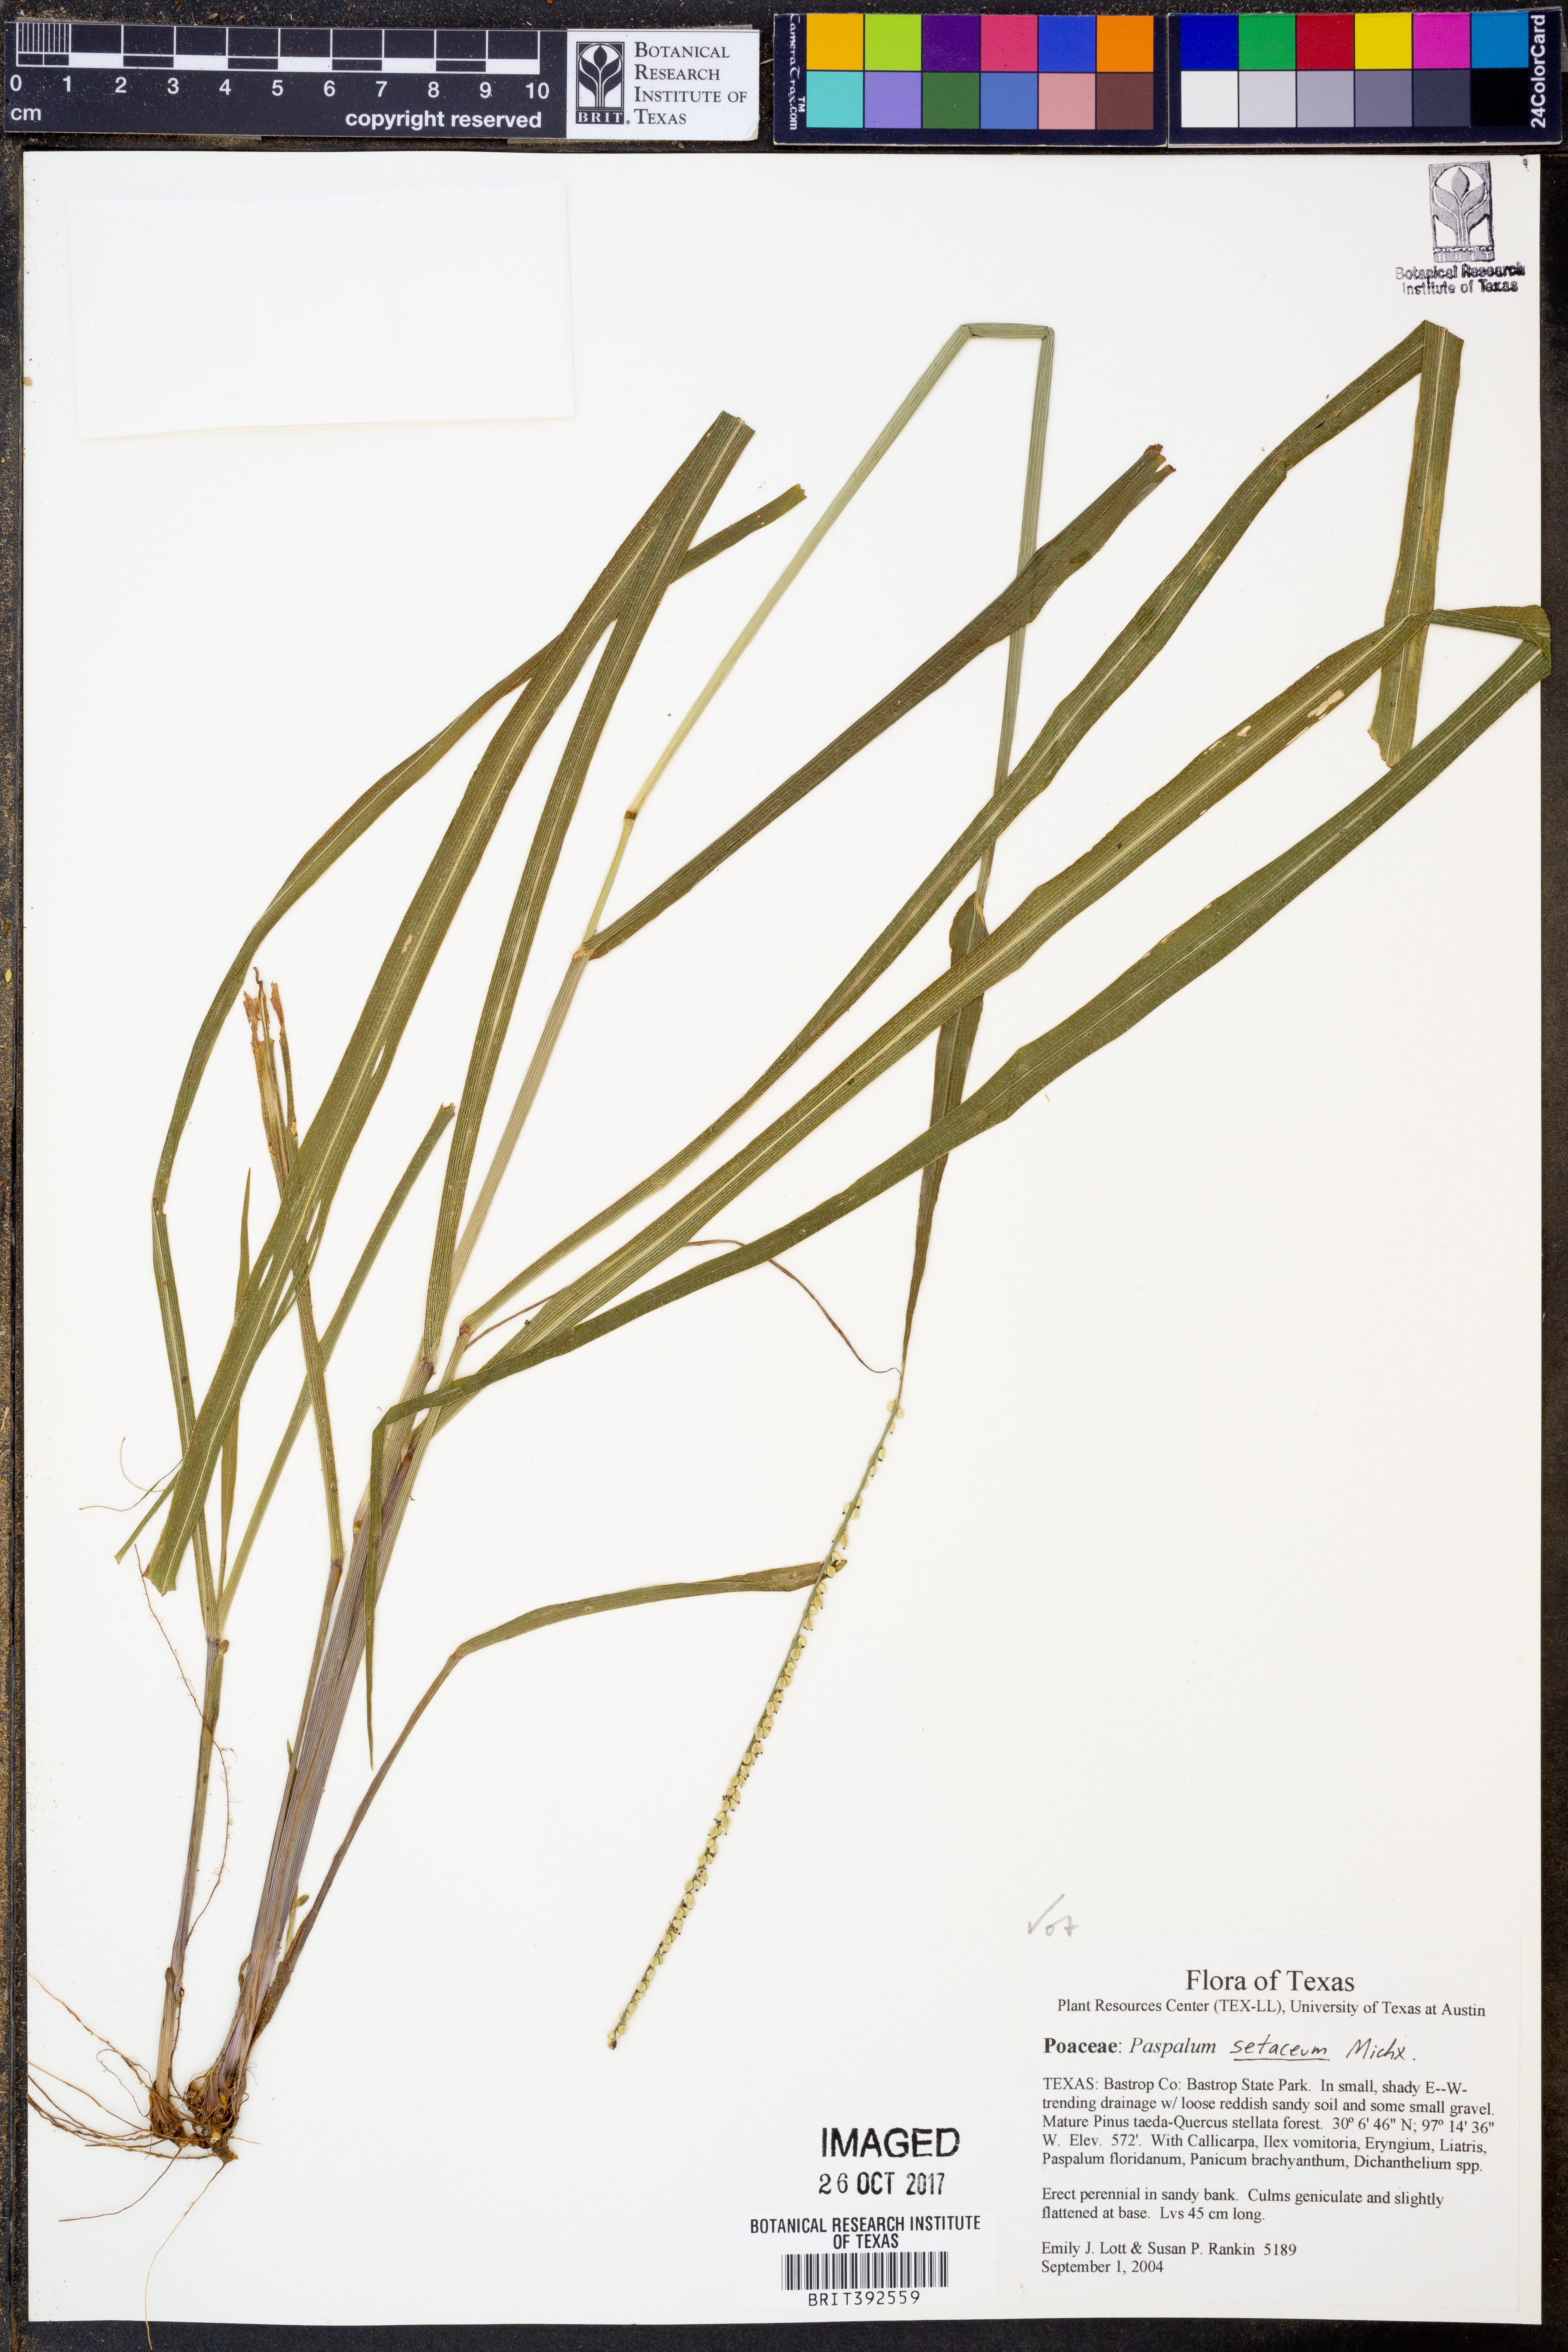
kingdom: Plantae
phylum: Tracheophyta
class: Liliopsida
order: Poales
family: Poaceae
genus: Paspalum
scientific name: Paspalum setaceum
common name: Slender paspalum
